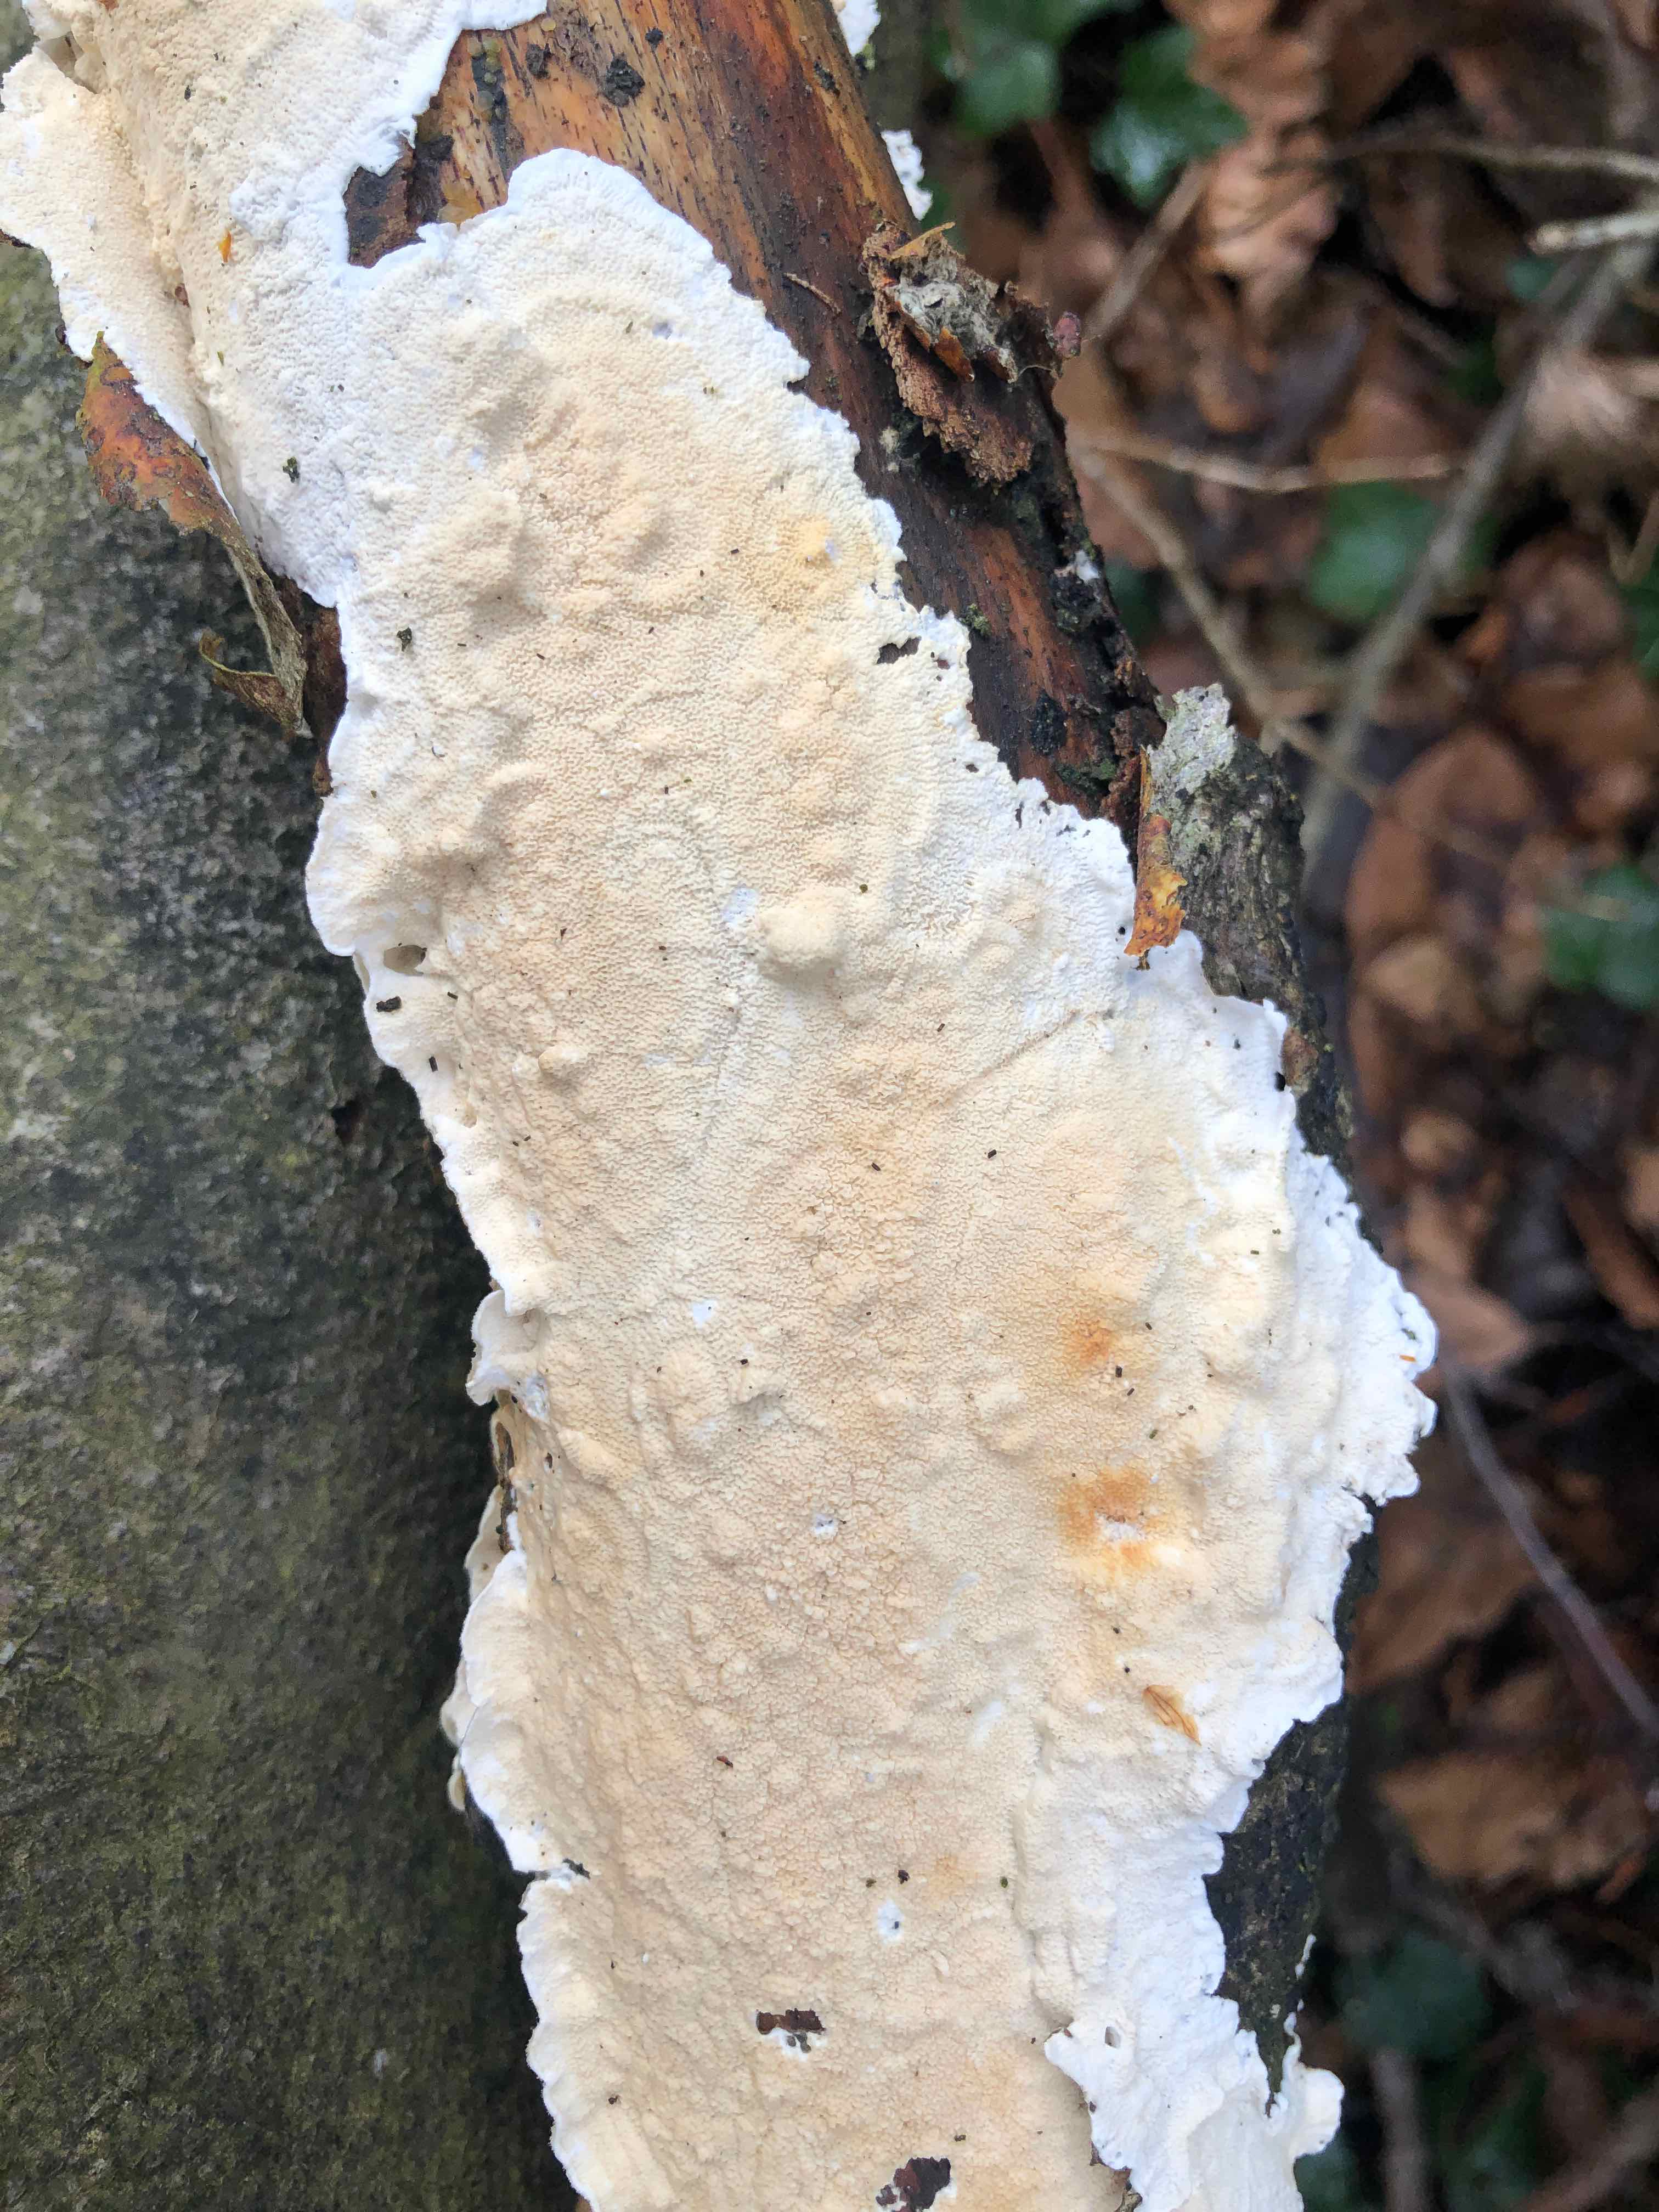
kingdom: Fungi
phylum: Basidiomycota
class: Agaricomycetes
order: Polyporales
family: Irpicaceae
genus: Byssomerulius
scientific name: Byssomerulius corium
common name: læder-åresvamp
